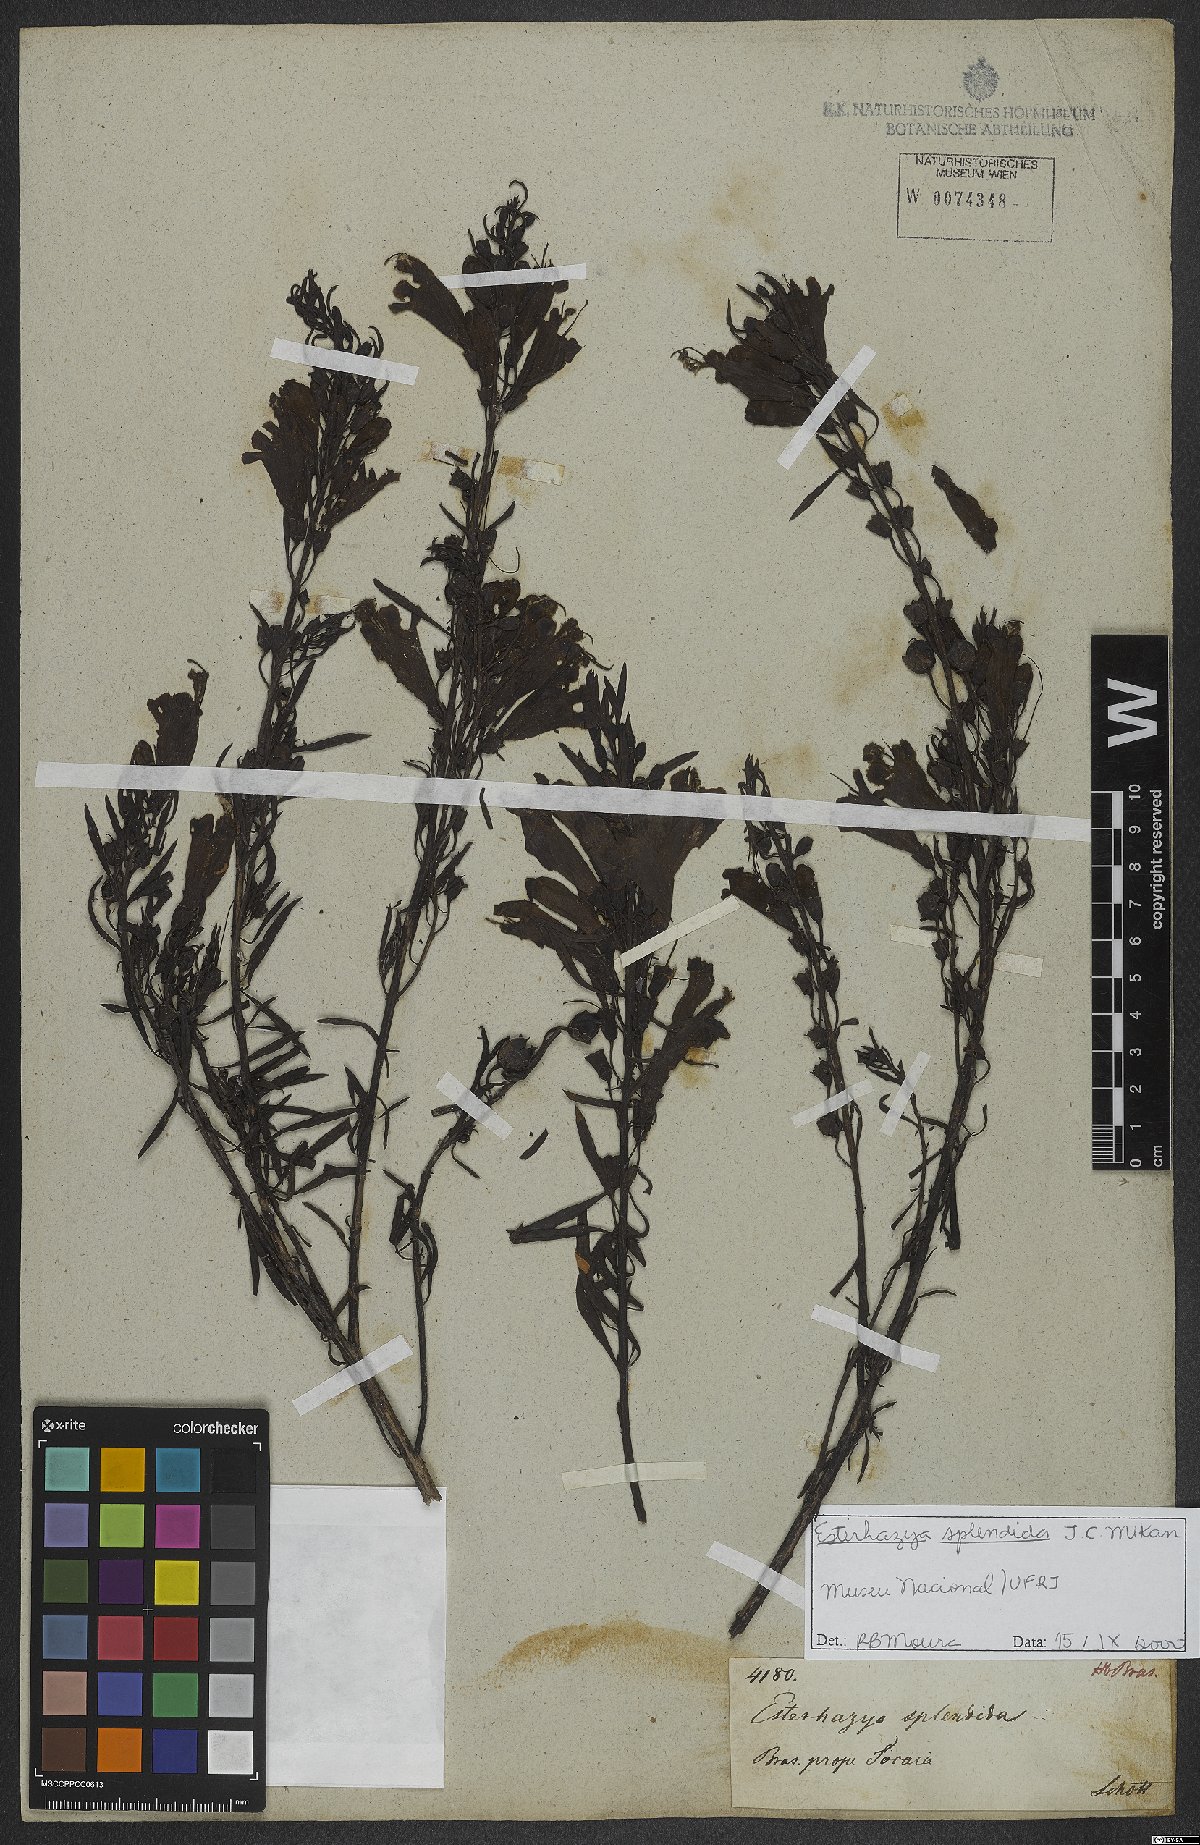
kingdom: Plantae
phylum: Tracheophyta
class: Magnoliopsida
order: Lamiales
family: Orobanchaceae
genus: Esterhazya
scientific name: Esterhazya splendida
